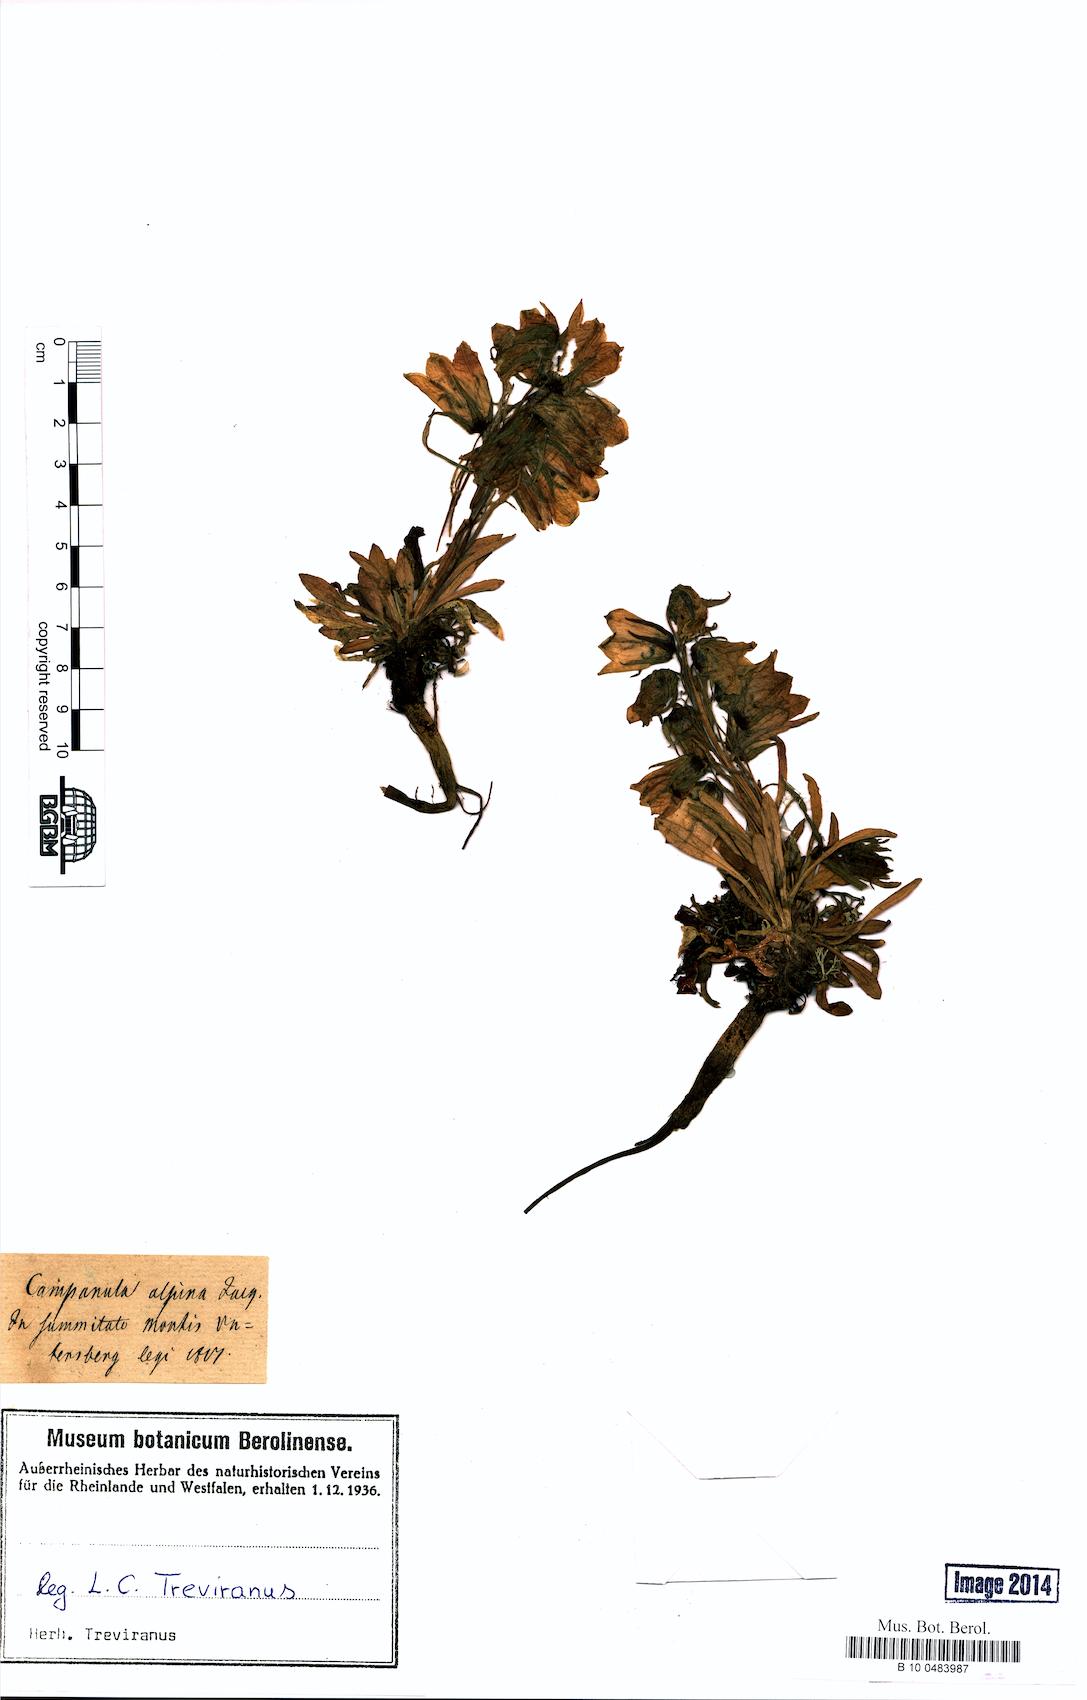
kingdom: Plantae
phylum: Tracheophyta
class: Magnoliopsida
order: Asterales
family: Campanulaceae
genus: Campanula
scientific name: Campanula alpina
